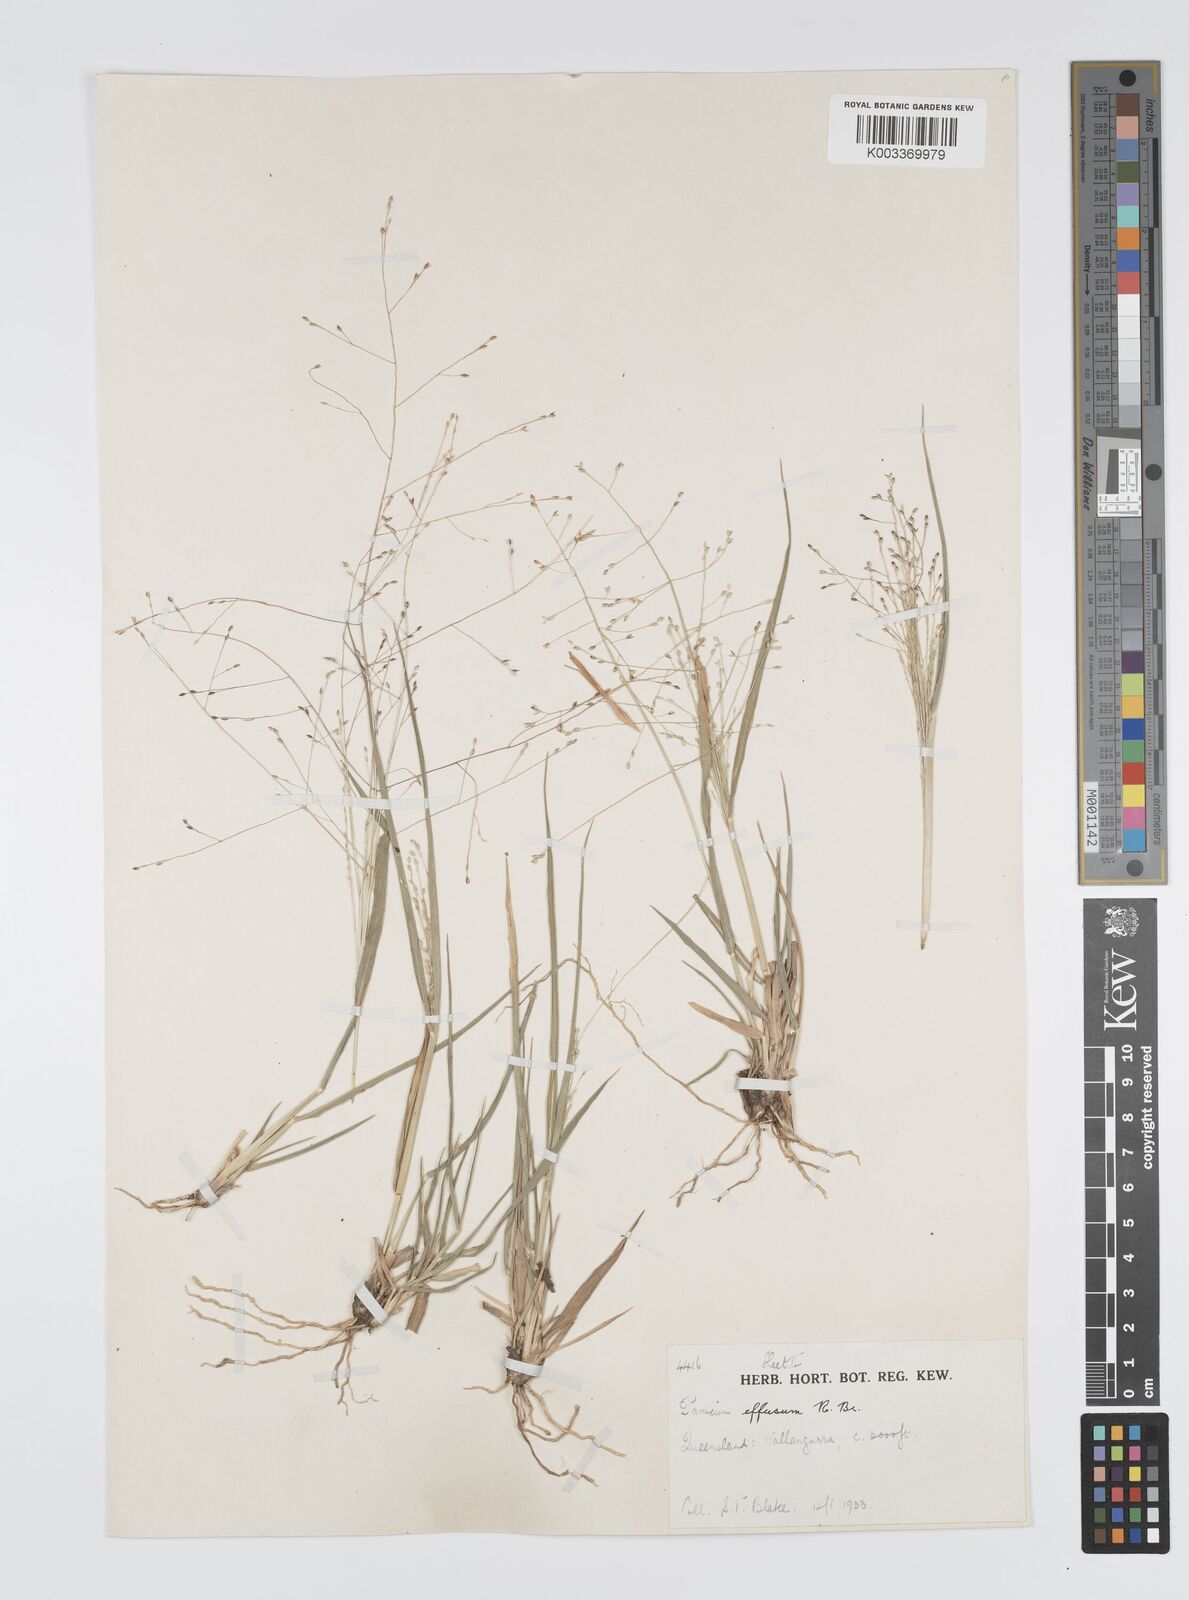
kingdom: Plantae
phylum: Tracheophyta
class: Liliopsida
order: Poales
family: Poaceae
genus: Panicum
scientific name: Panicum effusum
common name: Hairy panic grass
